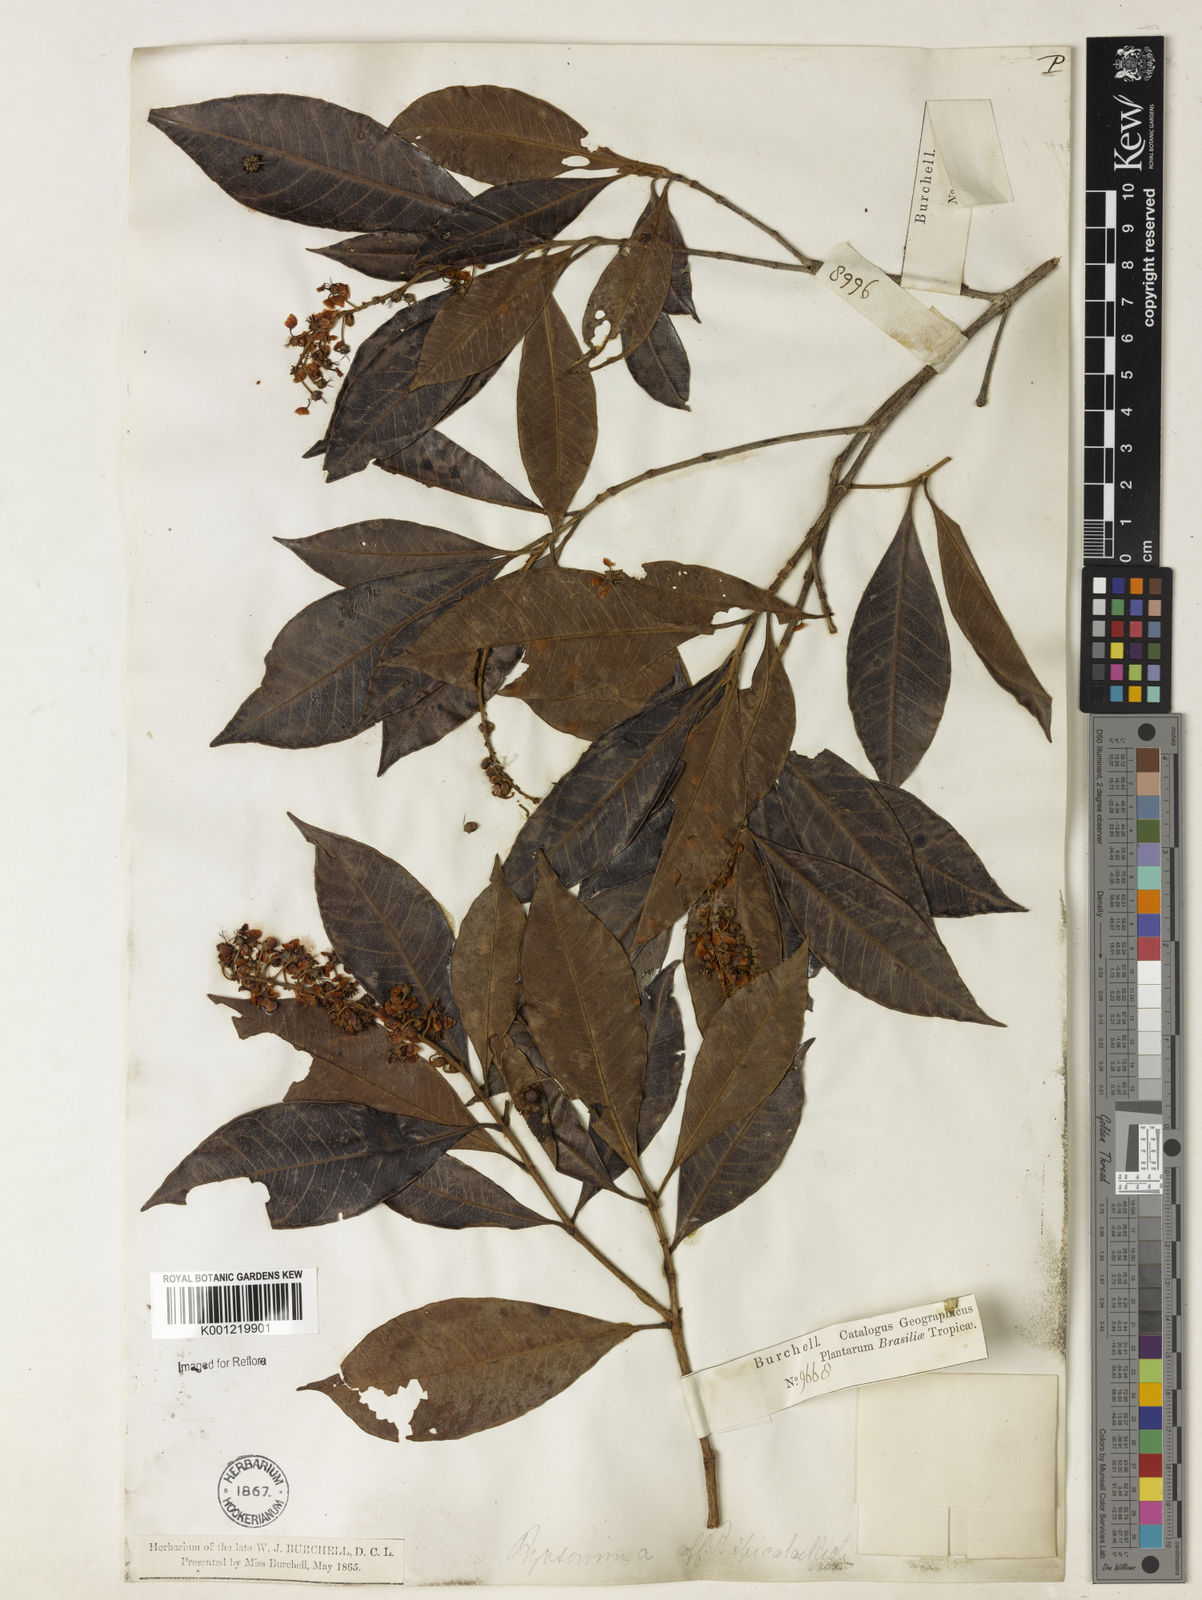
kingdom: Plantae
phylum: Tracheophyta
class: Magnoliopsida
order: Malpighiales
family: Malpighiaceae
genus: Byrsonima
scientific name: Byrsonima
